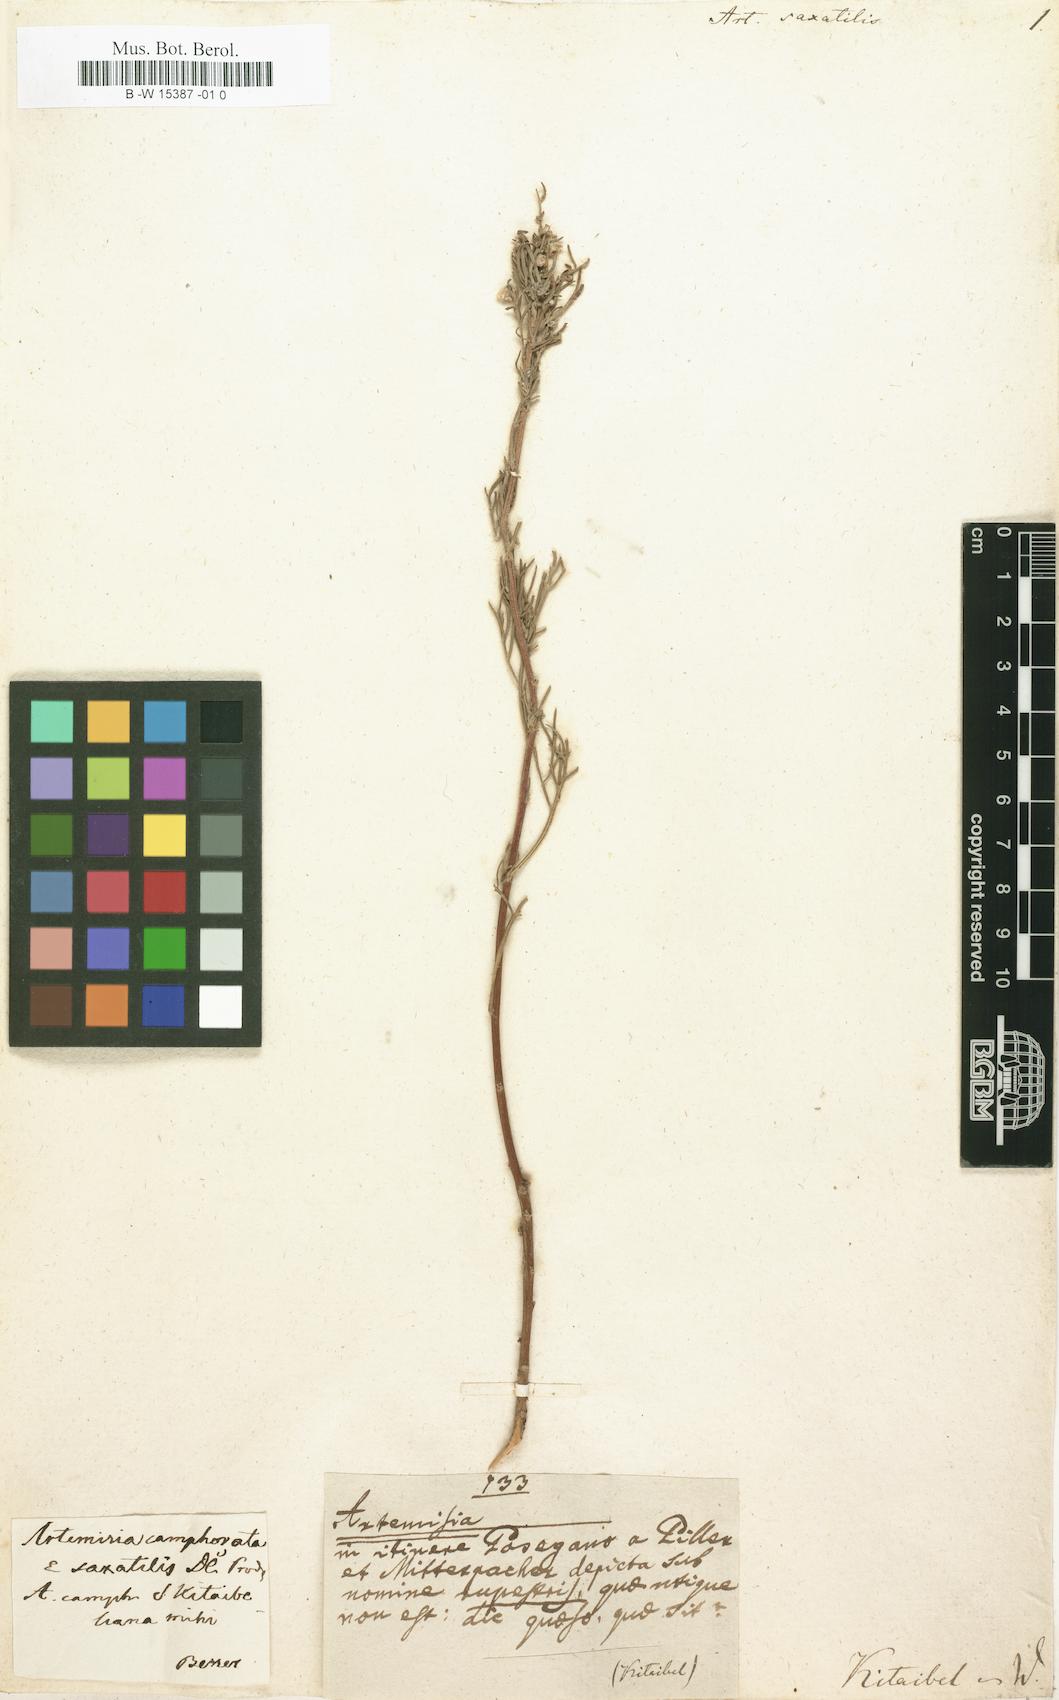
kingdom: Plantae
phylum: Tracheophyta
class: Magnoliopsida
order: Asterales
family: Asteraceae
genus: Artemisia
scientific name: Artemisia alba
